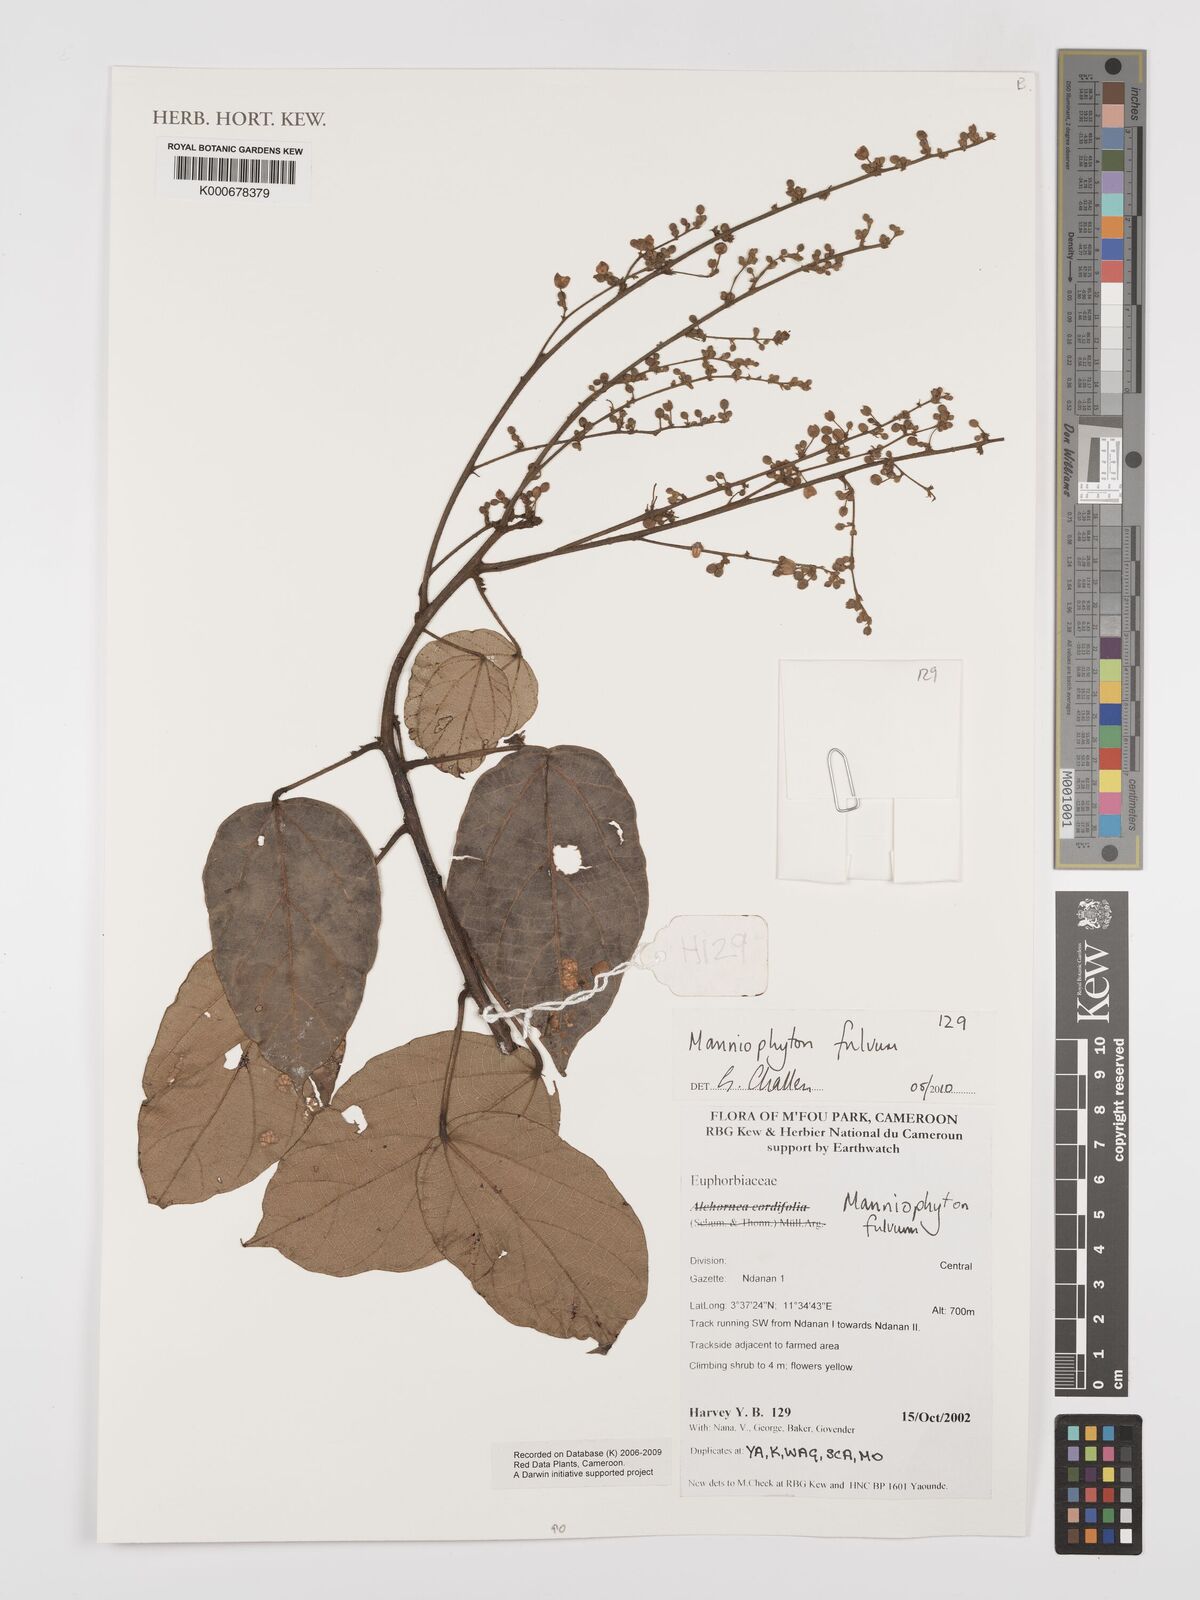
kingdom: Plantae
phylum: Tracheophyta
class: Magnoliopsida
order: Malpighiales
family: Euphorbiaceae
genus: Manniophyton
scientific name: Manniophyton
